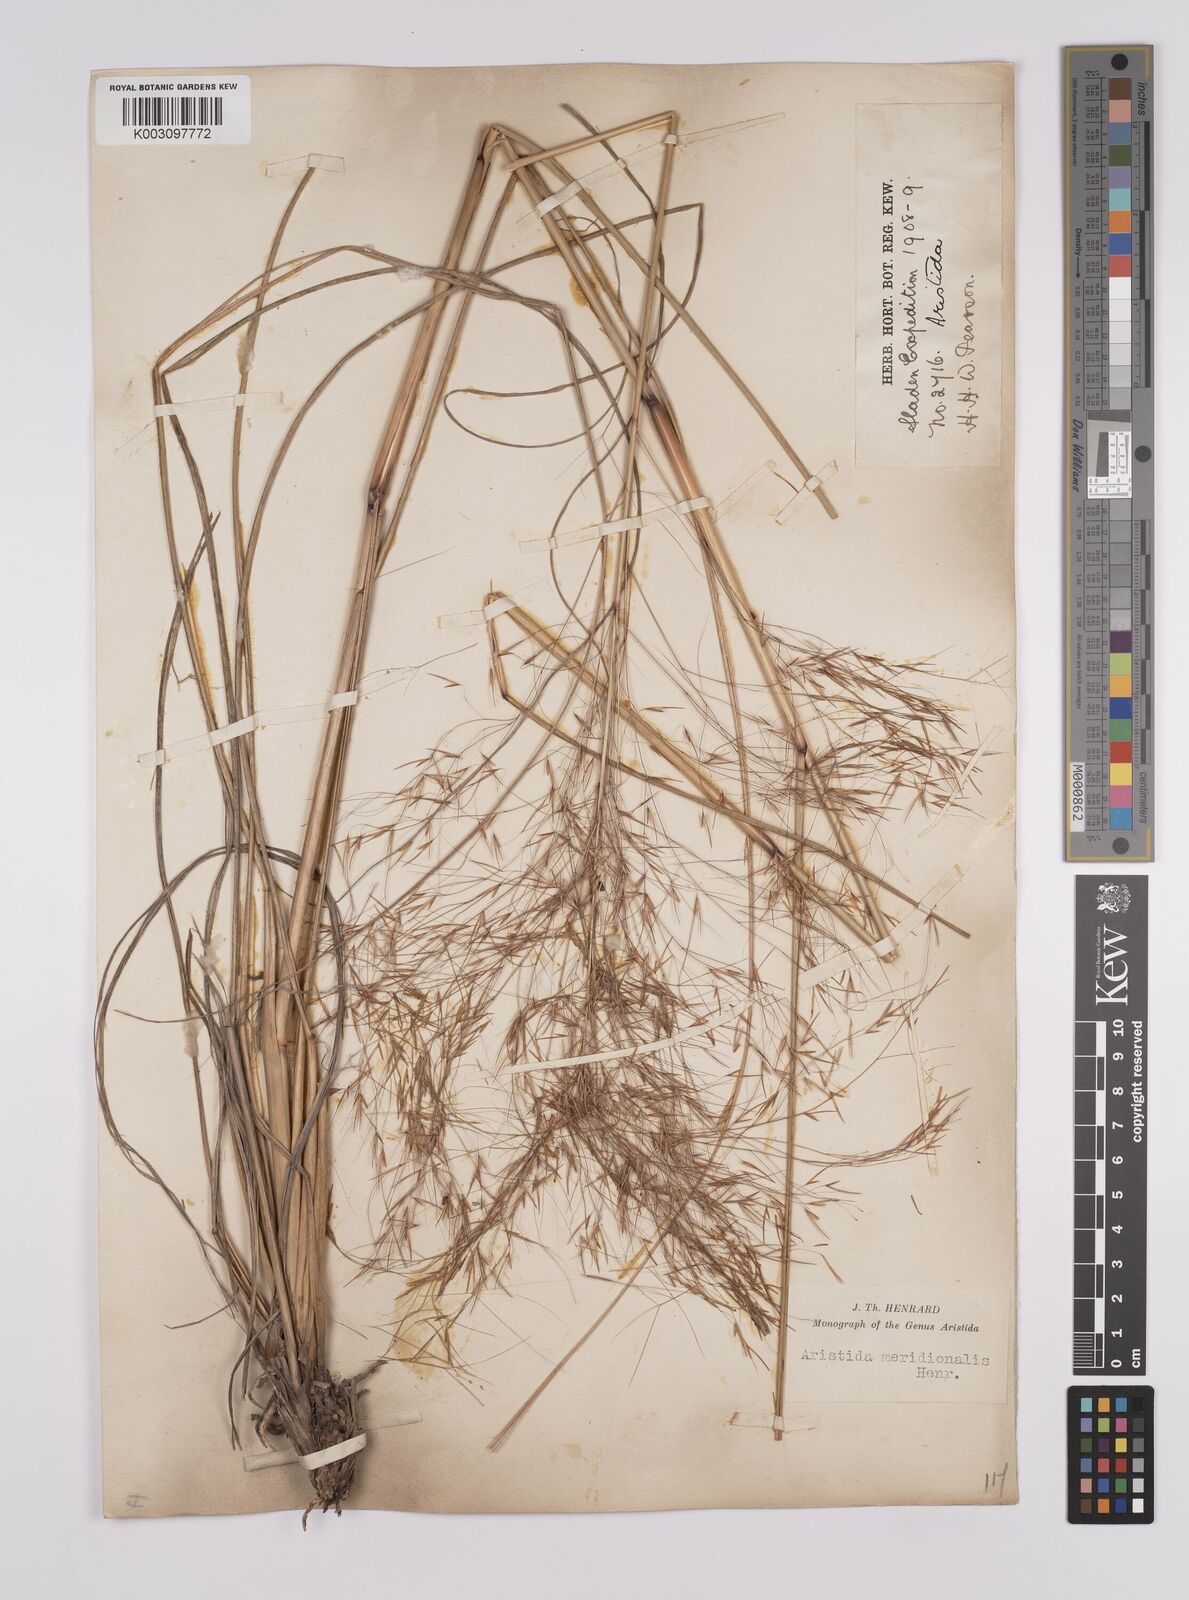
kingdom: Plantae
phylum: Tracheophyta
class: Liliopsida
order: Poales
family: Poaceae
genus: Aristida
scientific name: Aristida meridionalis
